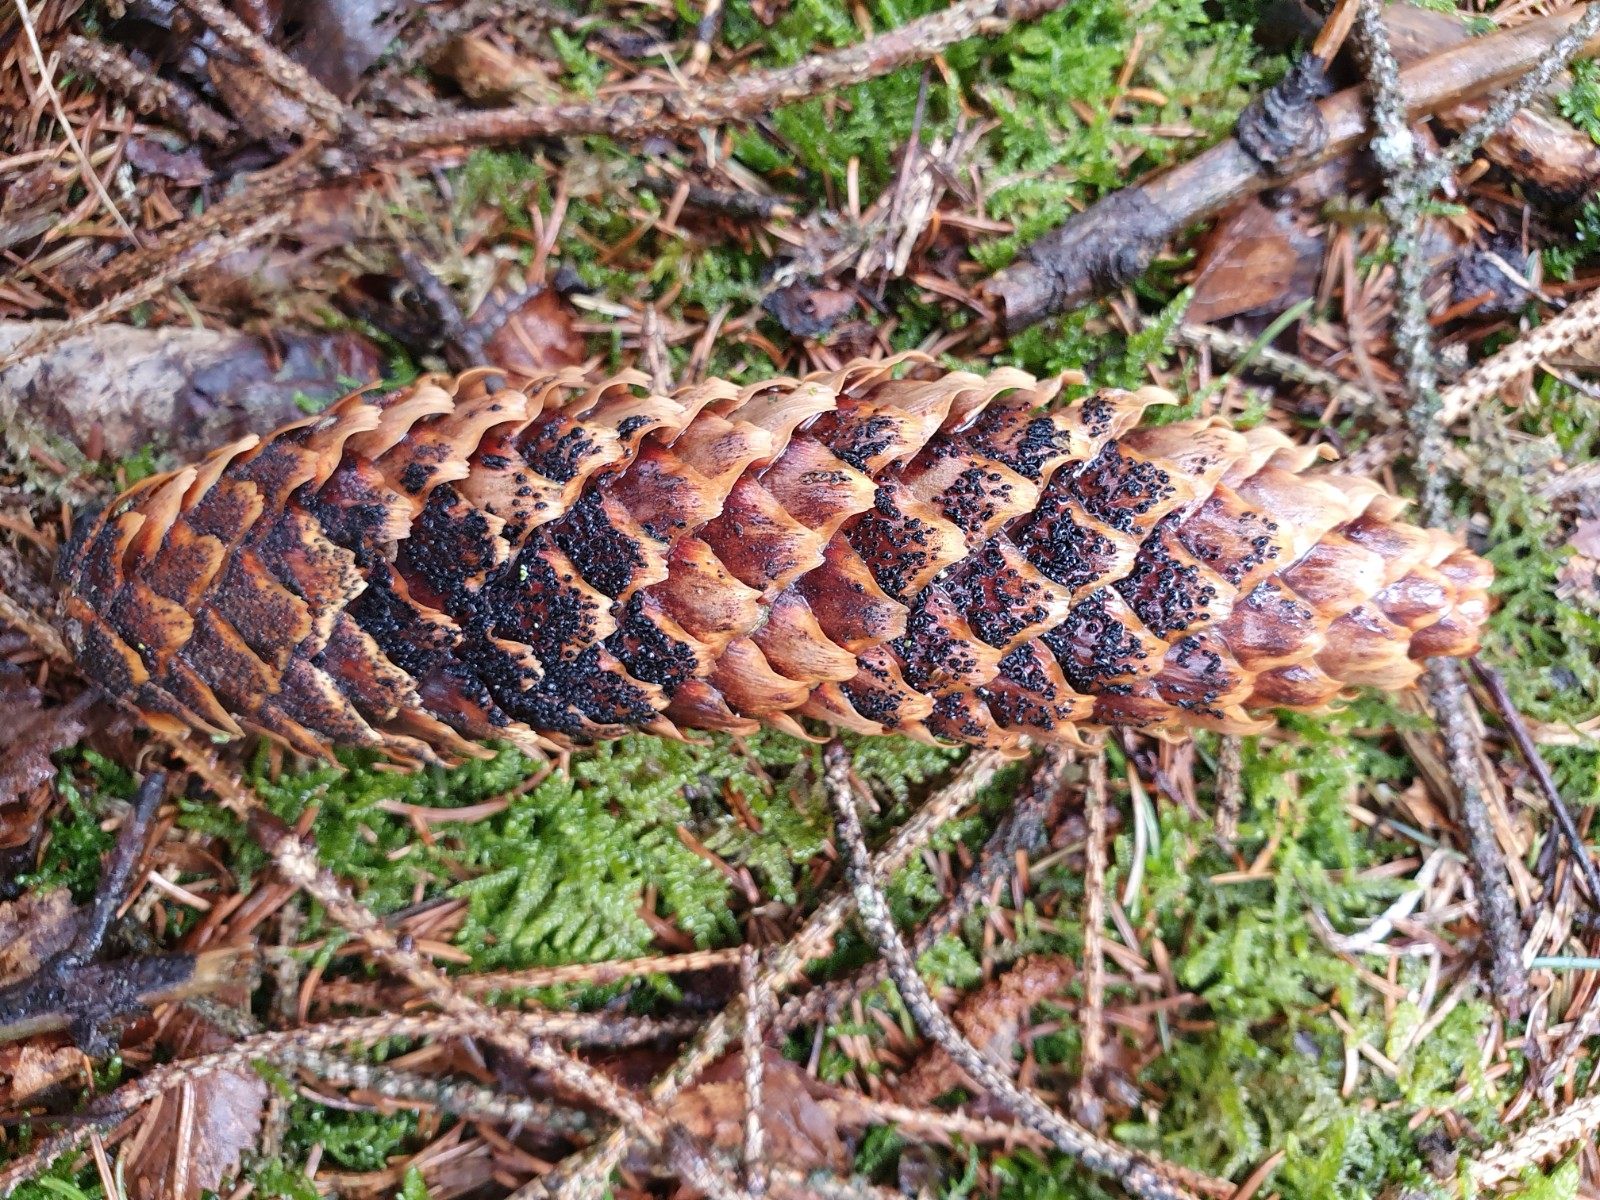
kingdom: Fungi
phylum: Ascomycota
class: Dothideomycetes
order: Pleosporales
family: Melanommataceae
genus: Phragmotrichum
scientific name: Phragmotrichum chailletii
